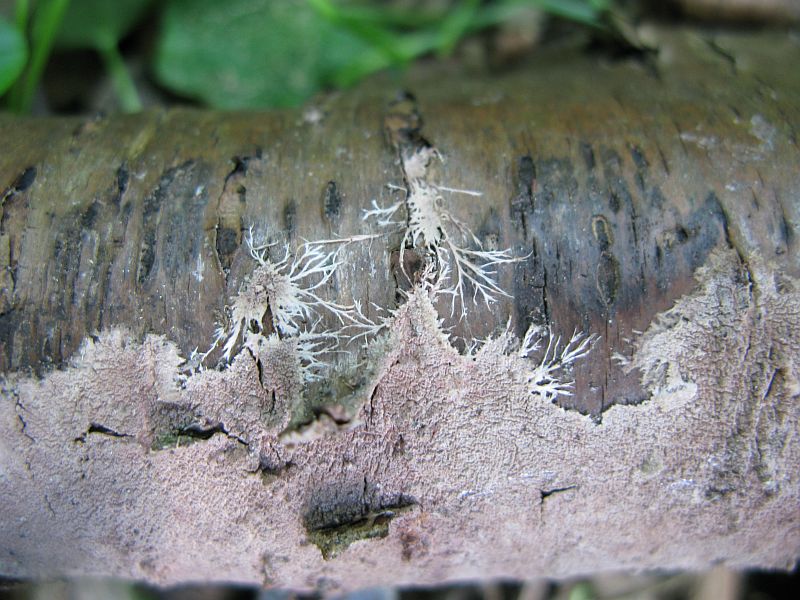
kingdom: Fungi
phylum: Basidiomycota
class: Agaricomycetes
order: Polyporales
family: Steccherinaceae
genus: Steccherinum
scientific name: Steccherinum fimbriatum
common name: trådet skønpig
